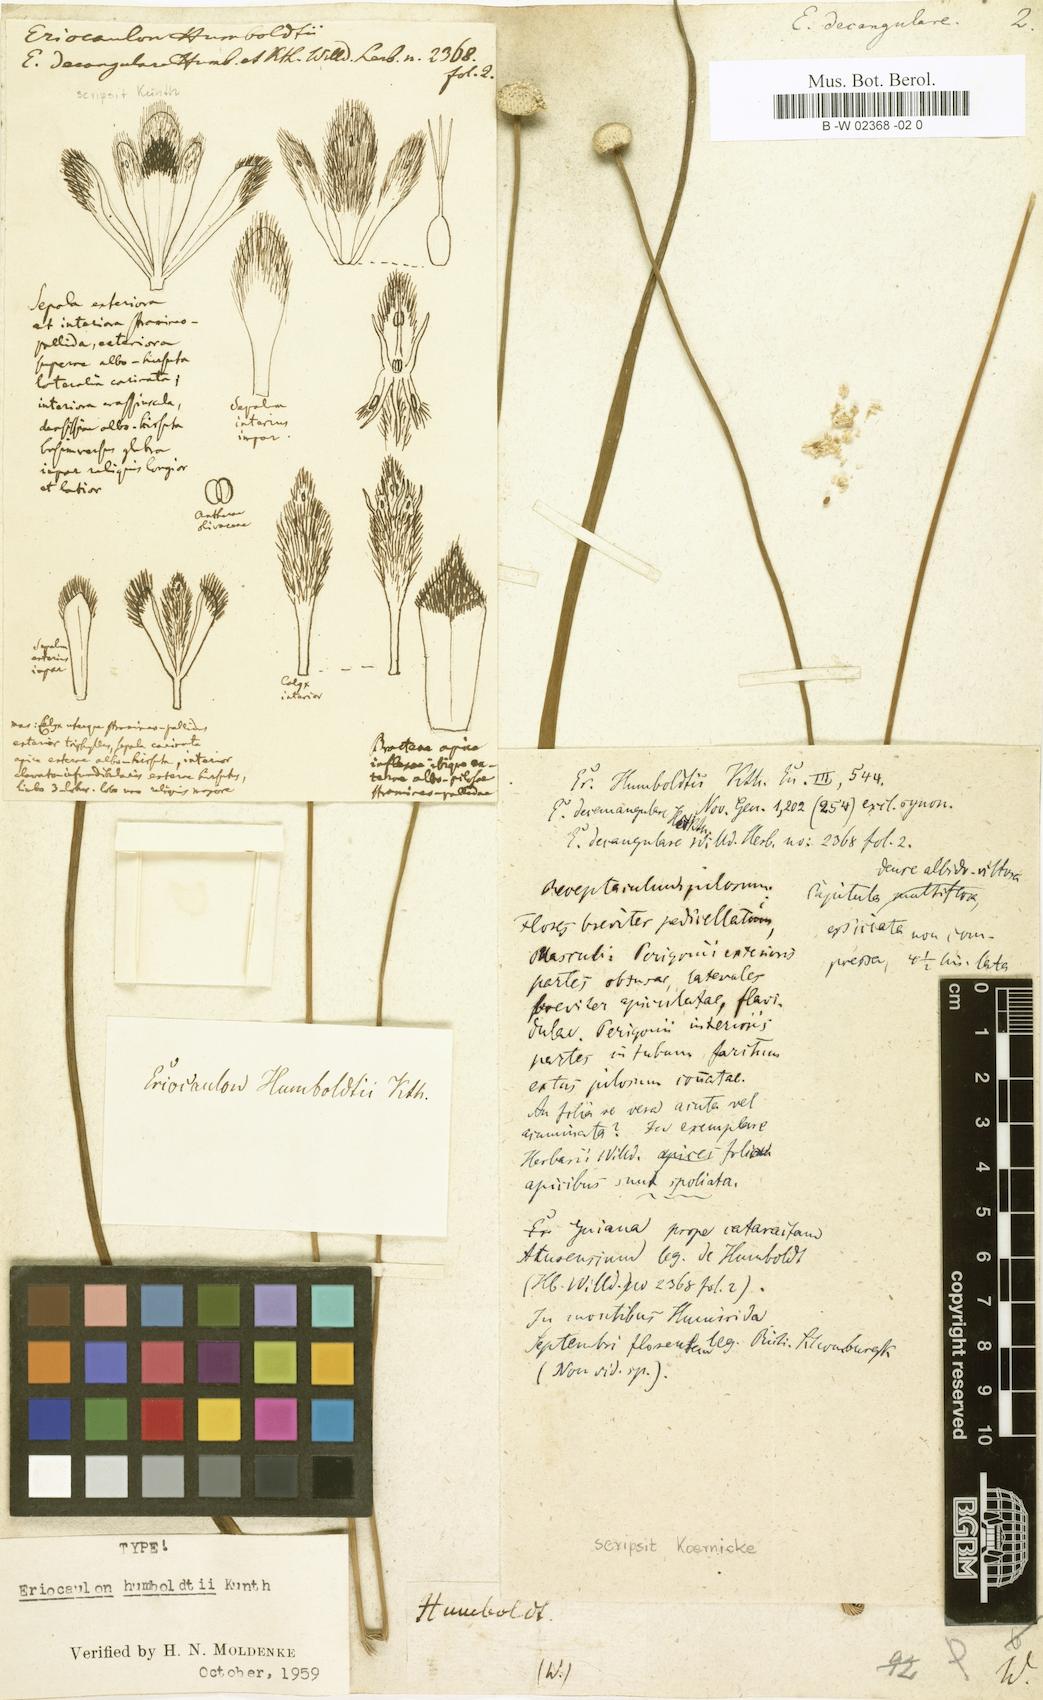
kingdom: Plantae
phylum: Tracheophyta
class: Liliopsida
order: Poales
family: Eriocaulaceae
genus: Eriocaulon
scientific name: Eriocaulon decangulare
